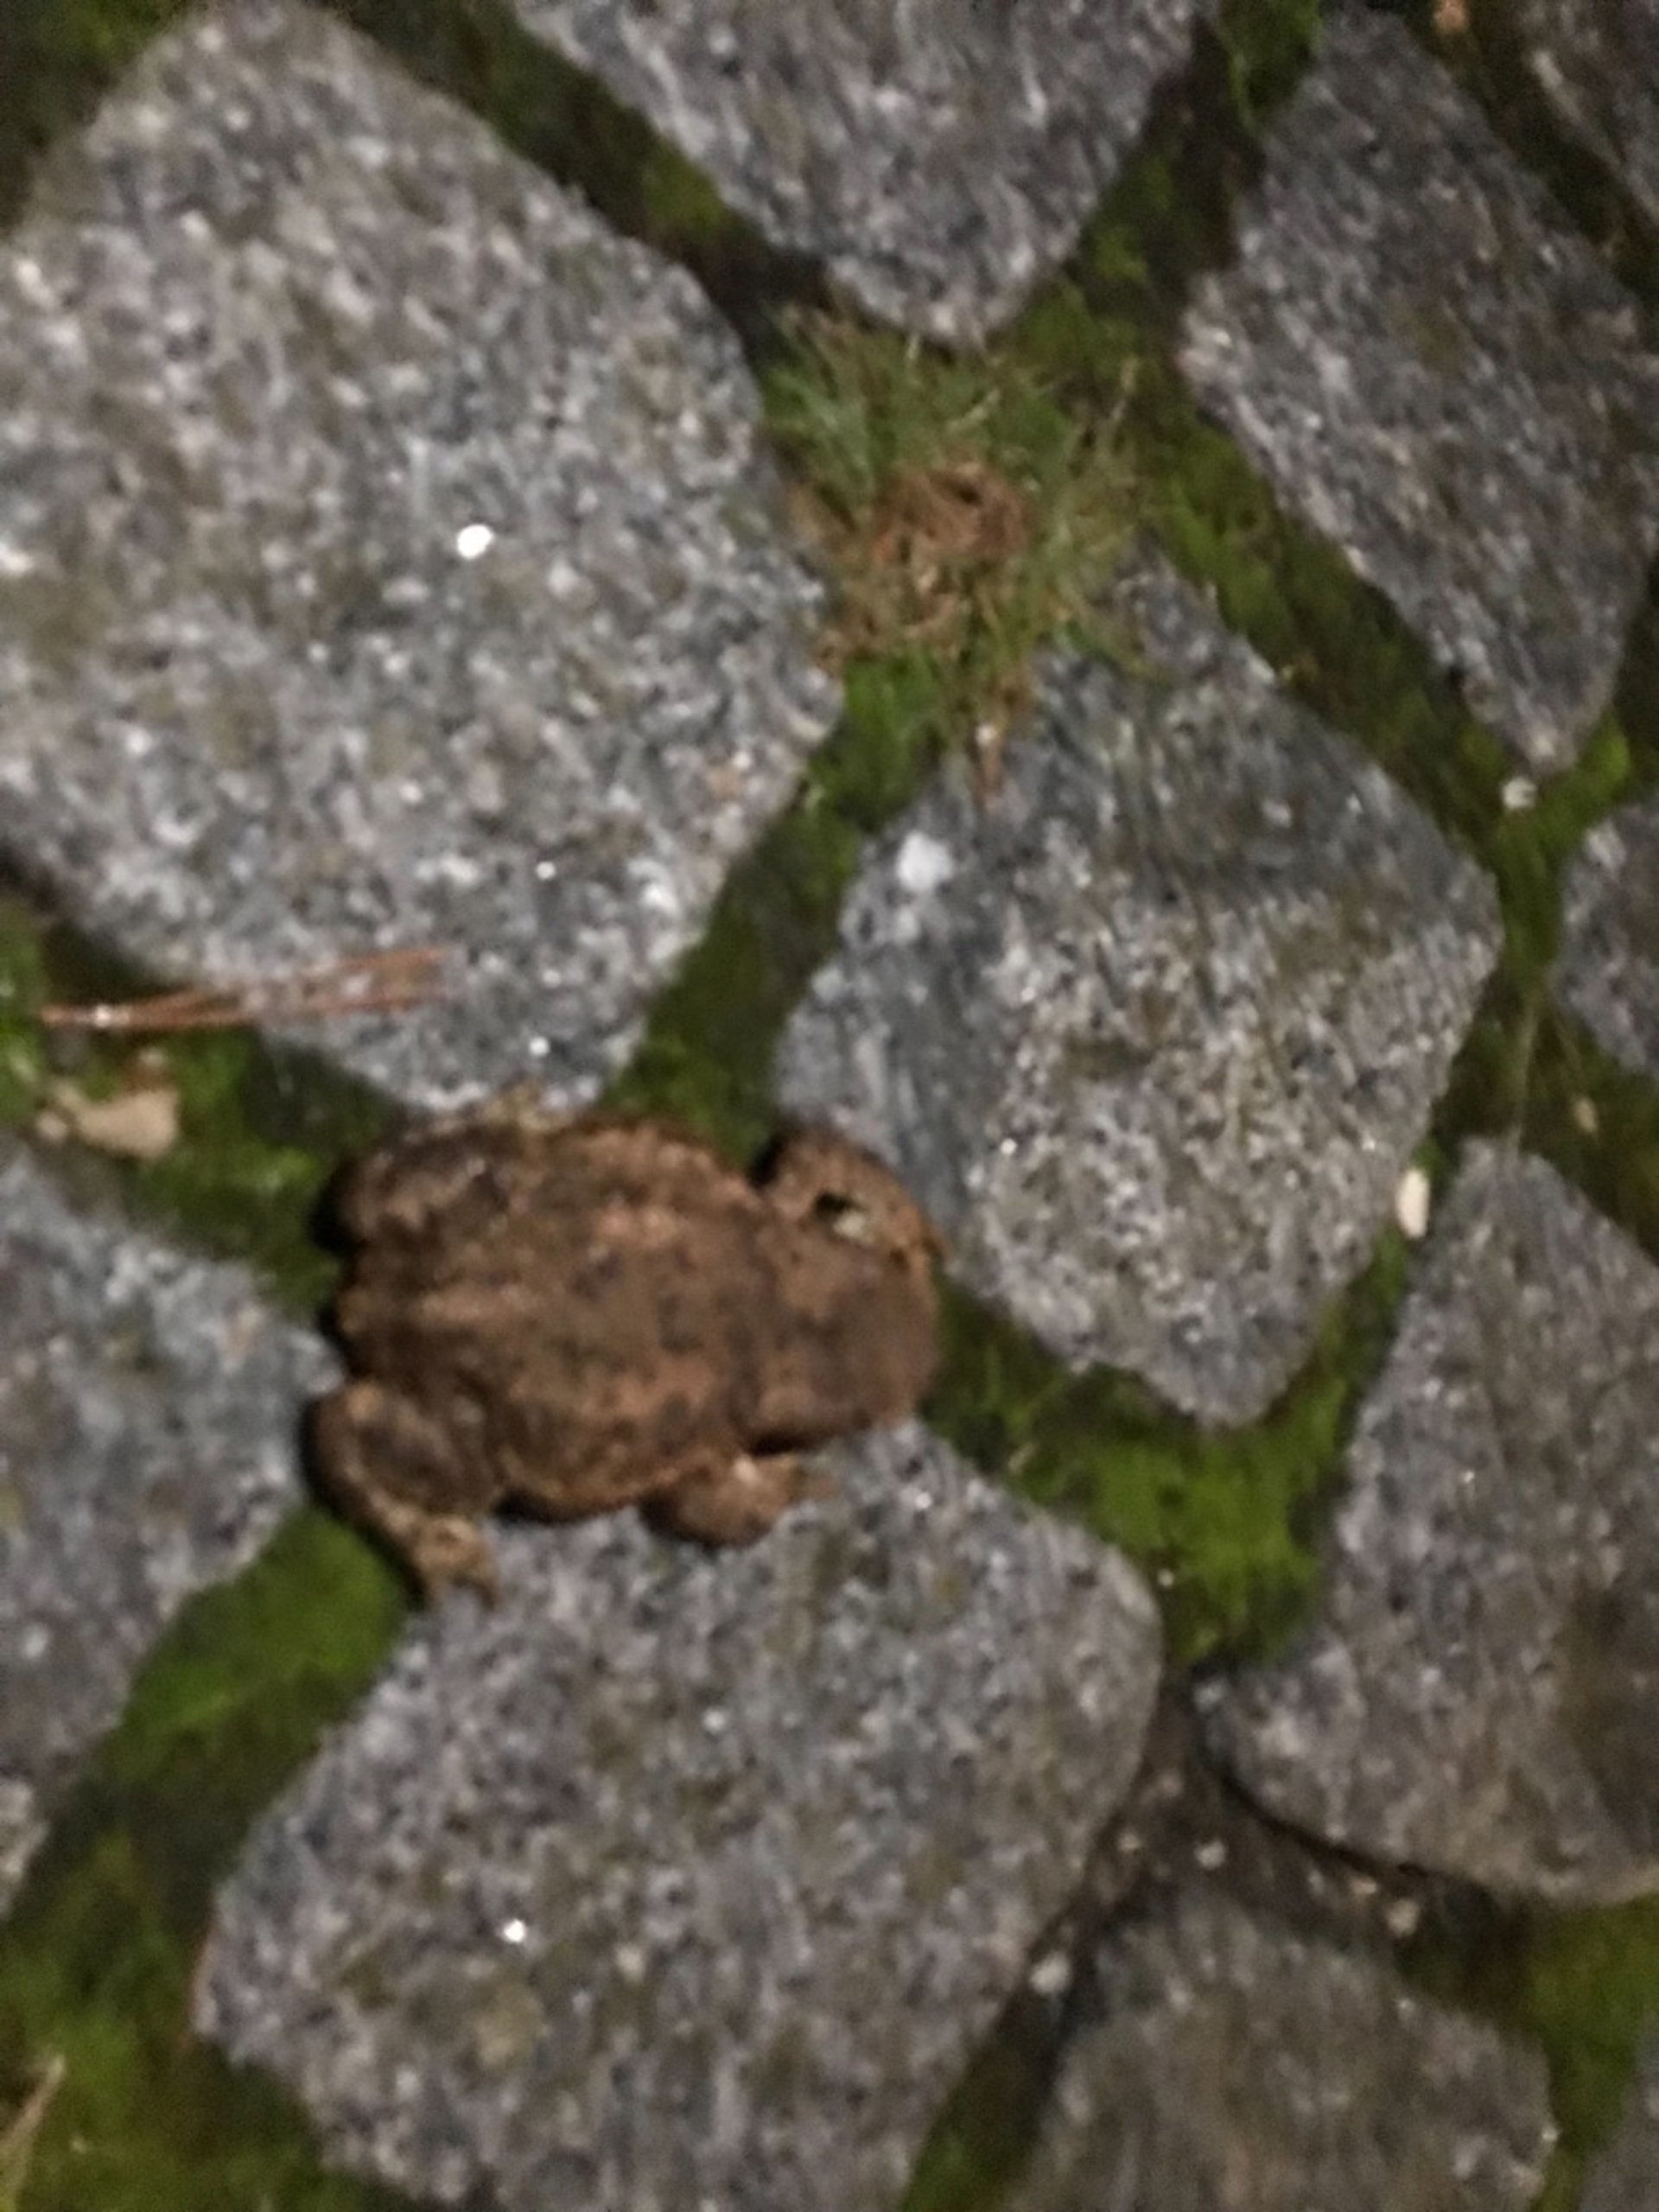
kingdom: Animalia
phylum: Chordata
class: Amphibia
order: Anura
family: Bufonidae
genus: Bufo
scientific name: Bufo bufo
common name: Skrubtudse
